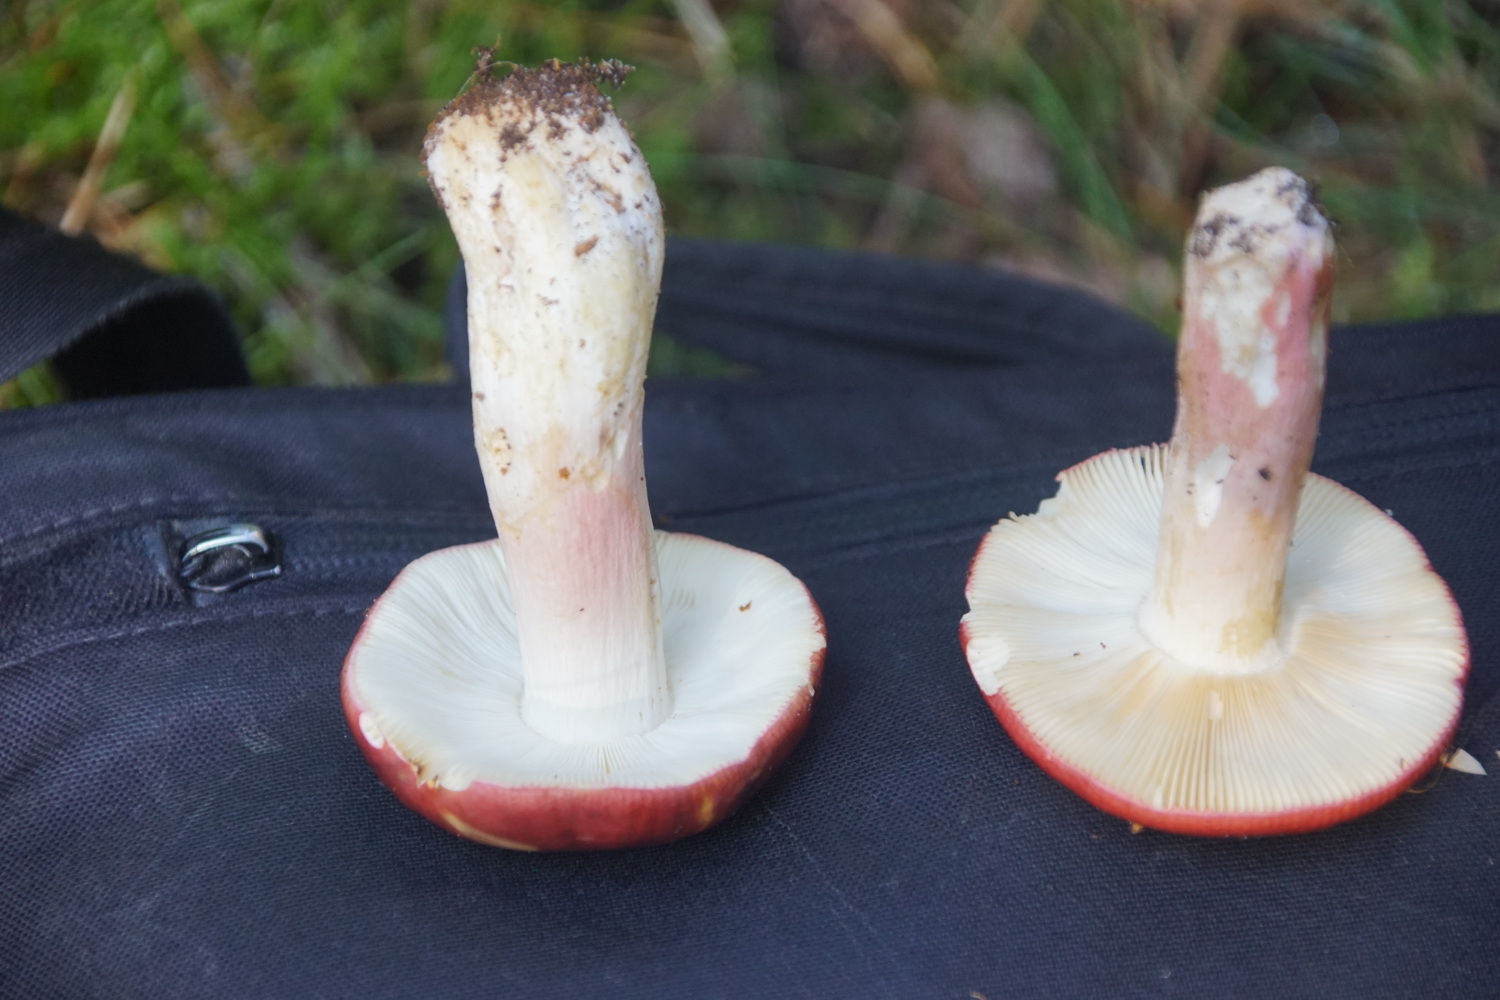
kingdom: Fungi
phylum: Basidiomycota
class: Agaricomycetes
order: Russulales
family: Russulaceae
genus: Russula
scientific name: Russula xerampelina
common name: hummer-skørhat
